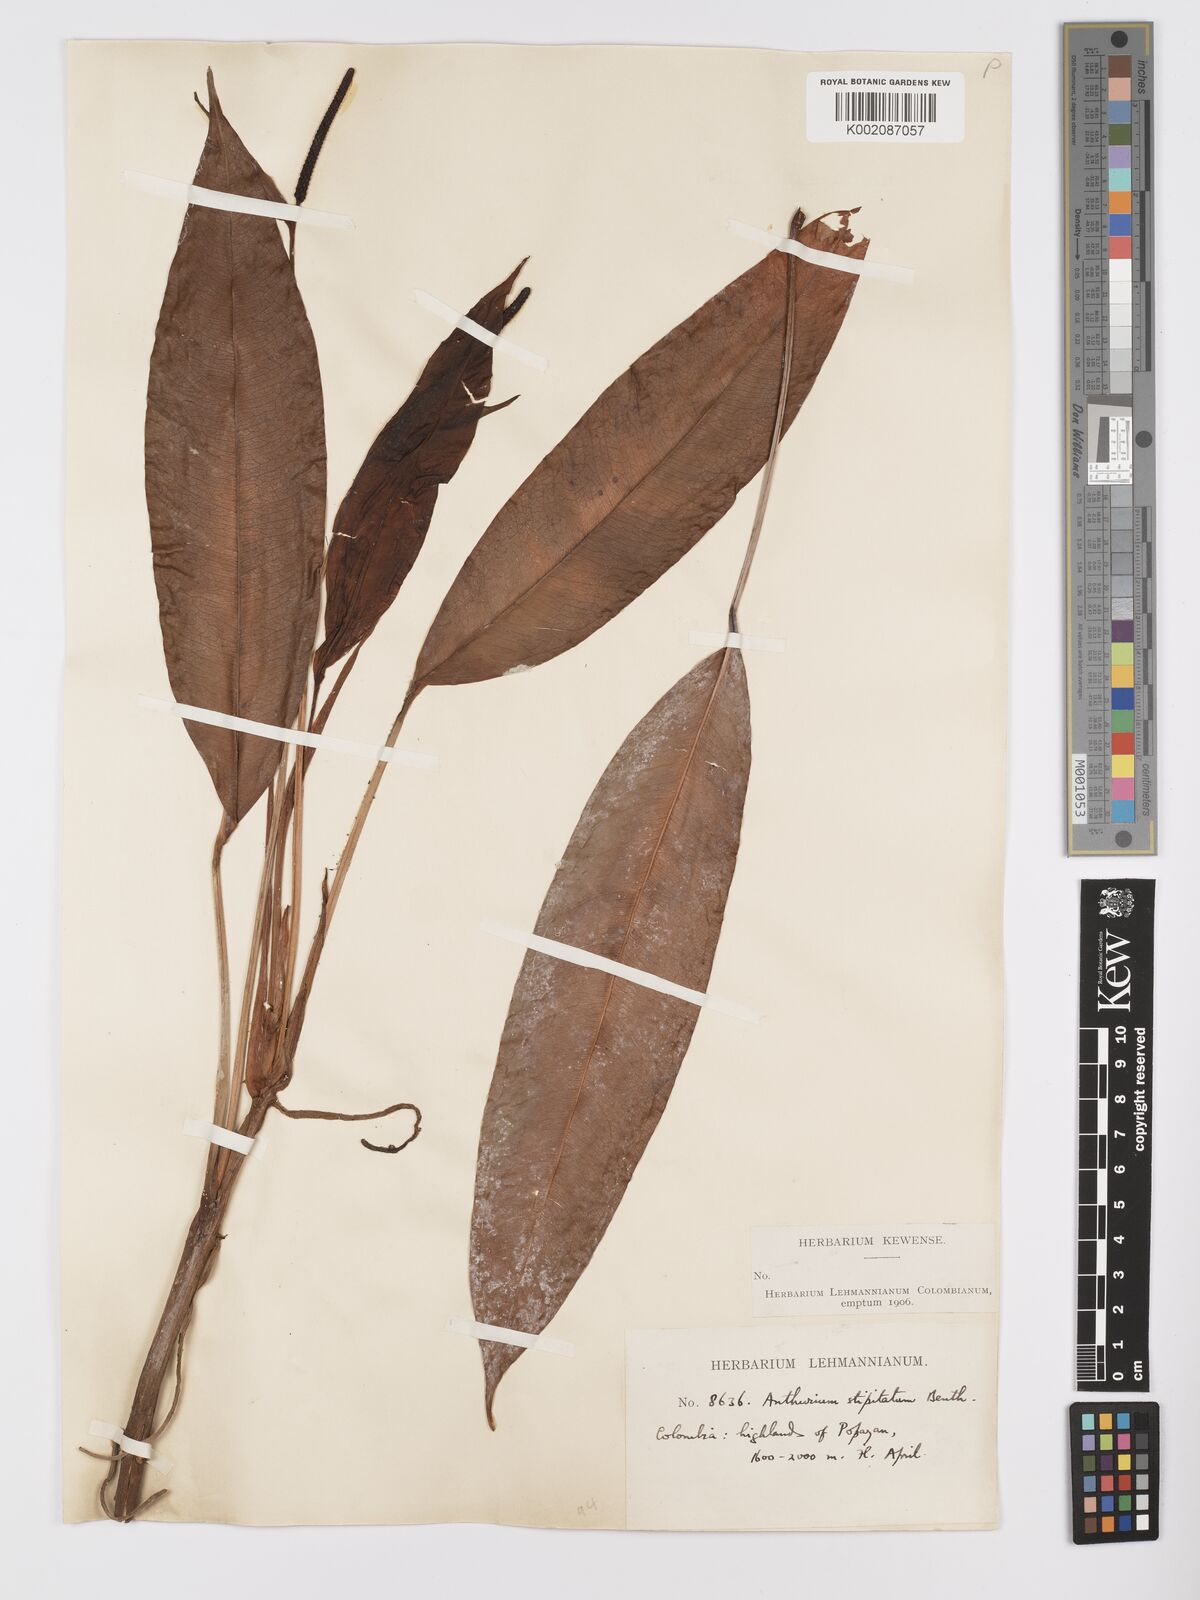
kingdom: Plantae
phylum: Tracheophyta
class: Liliopsida
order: Alismatales
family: Araceae
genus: Anthurium
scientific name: Anthurium stipitatum
